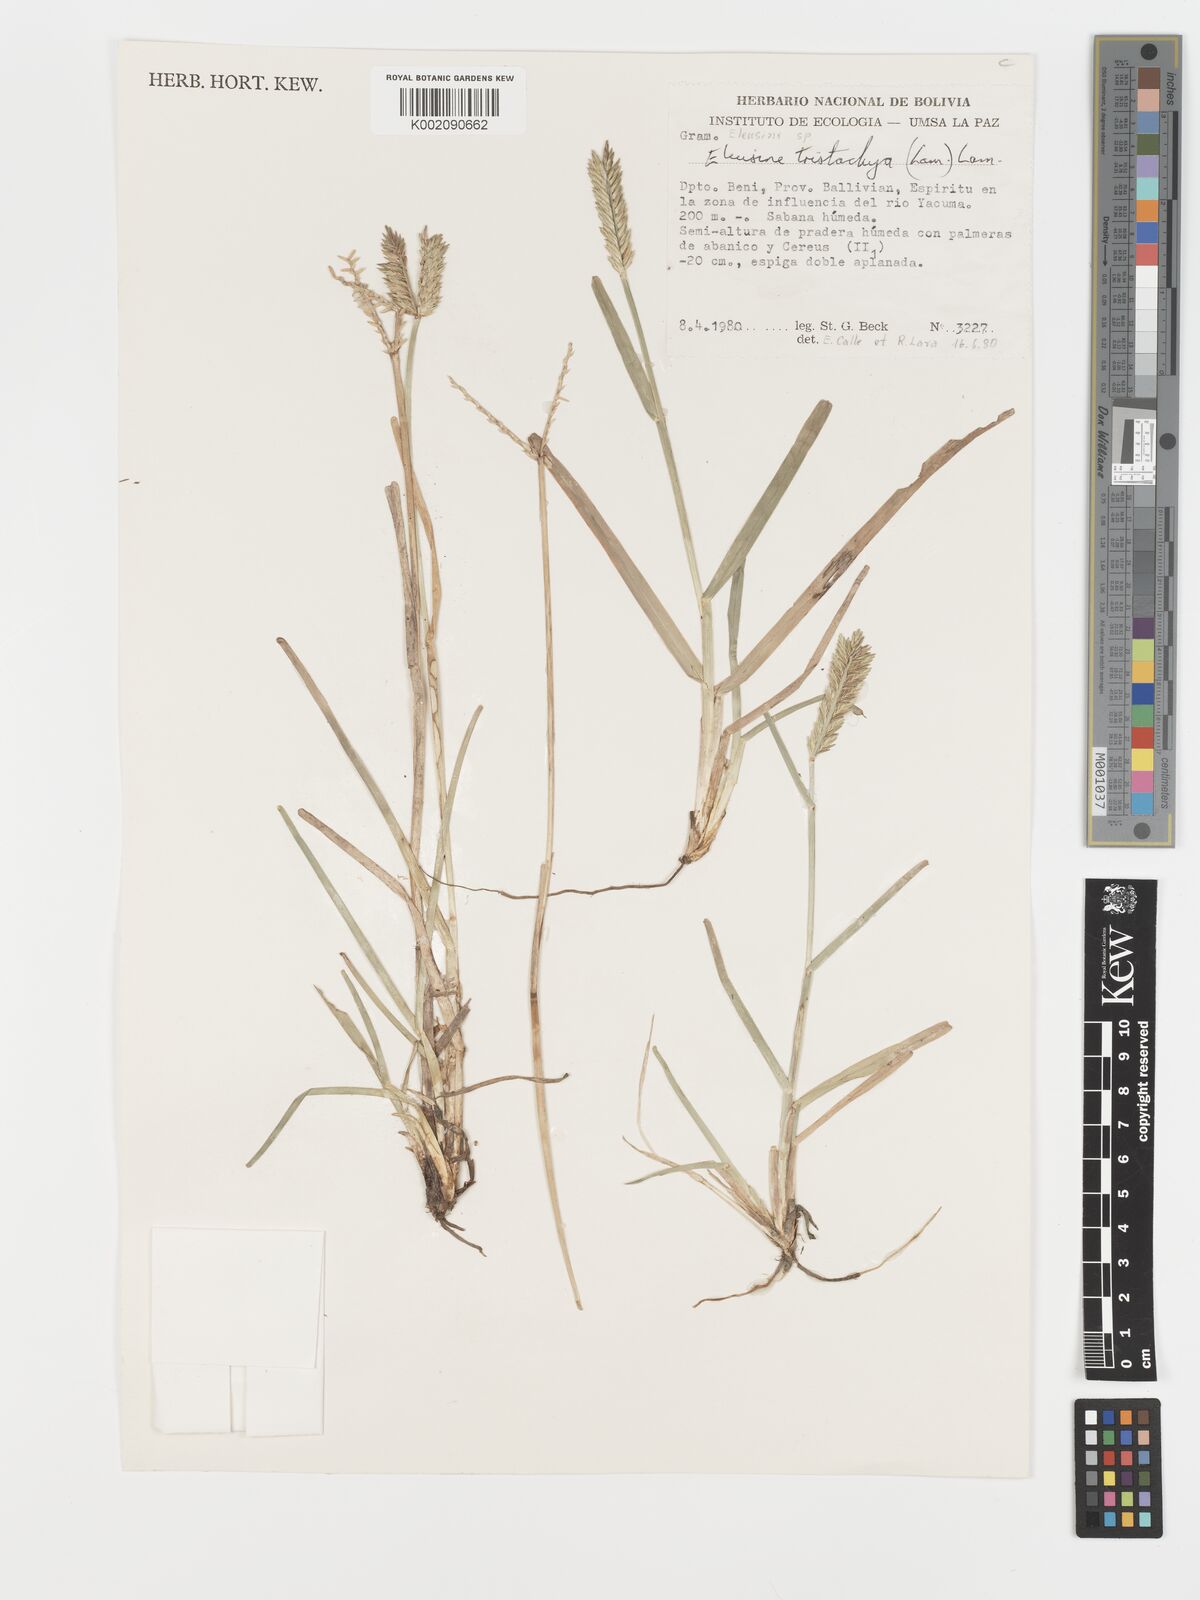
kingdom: Plantae
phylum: Tracheophyta
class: Liliopsida
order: Poales
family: Poaceae
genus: Eleusine
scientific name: Eleusine tristachya
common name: American yard-grass
